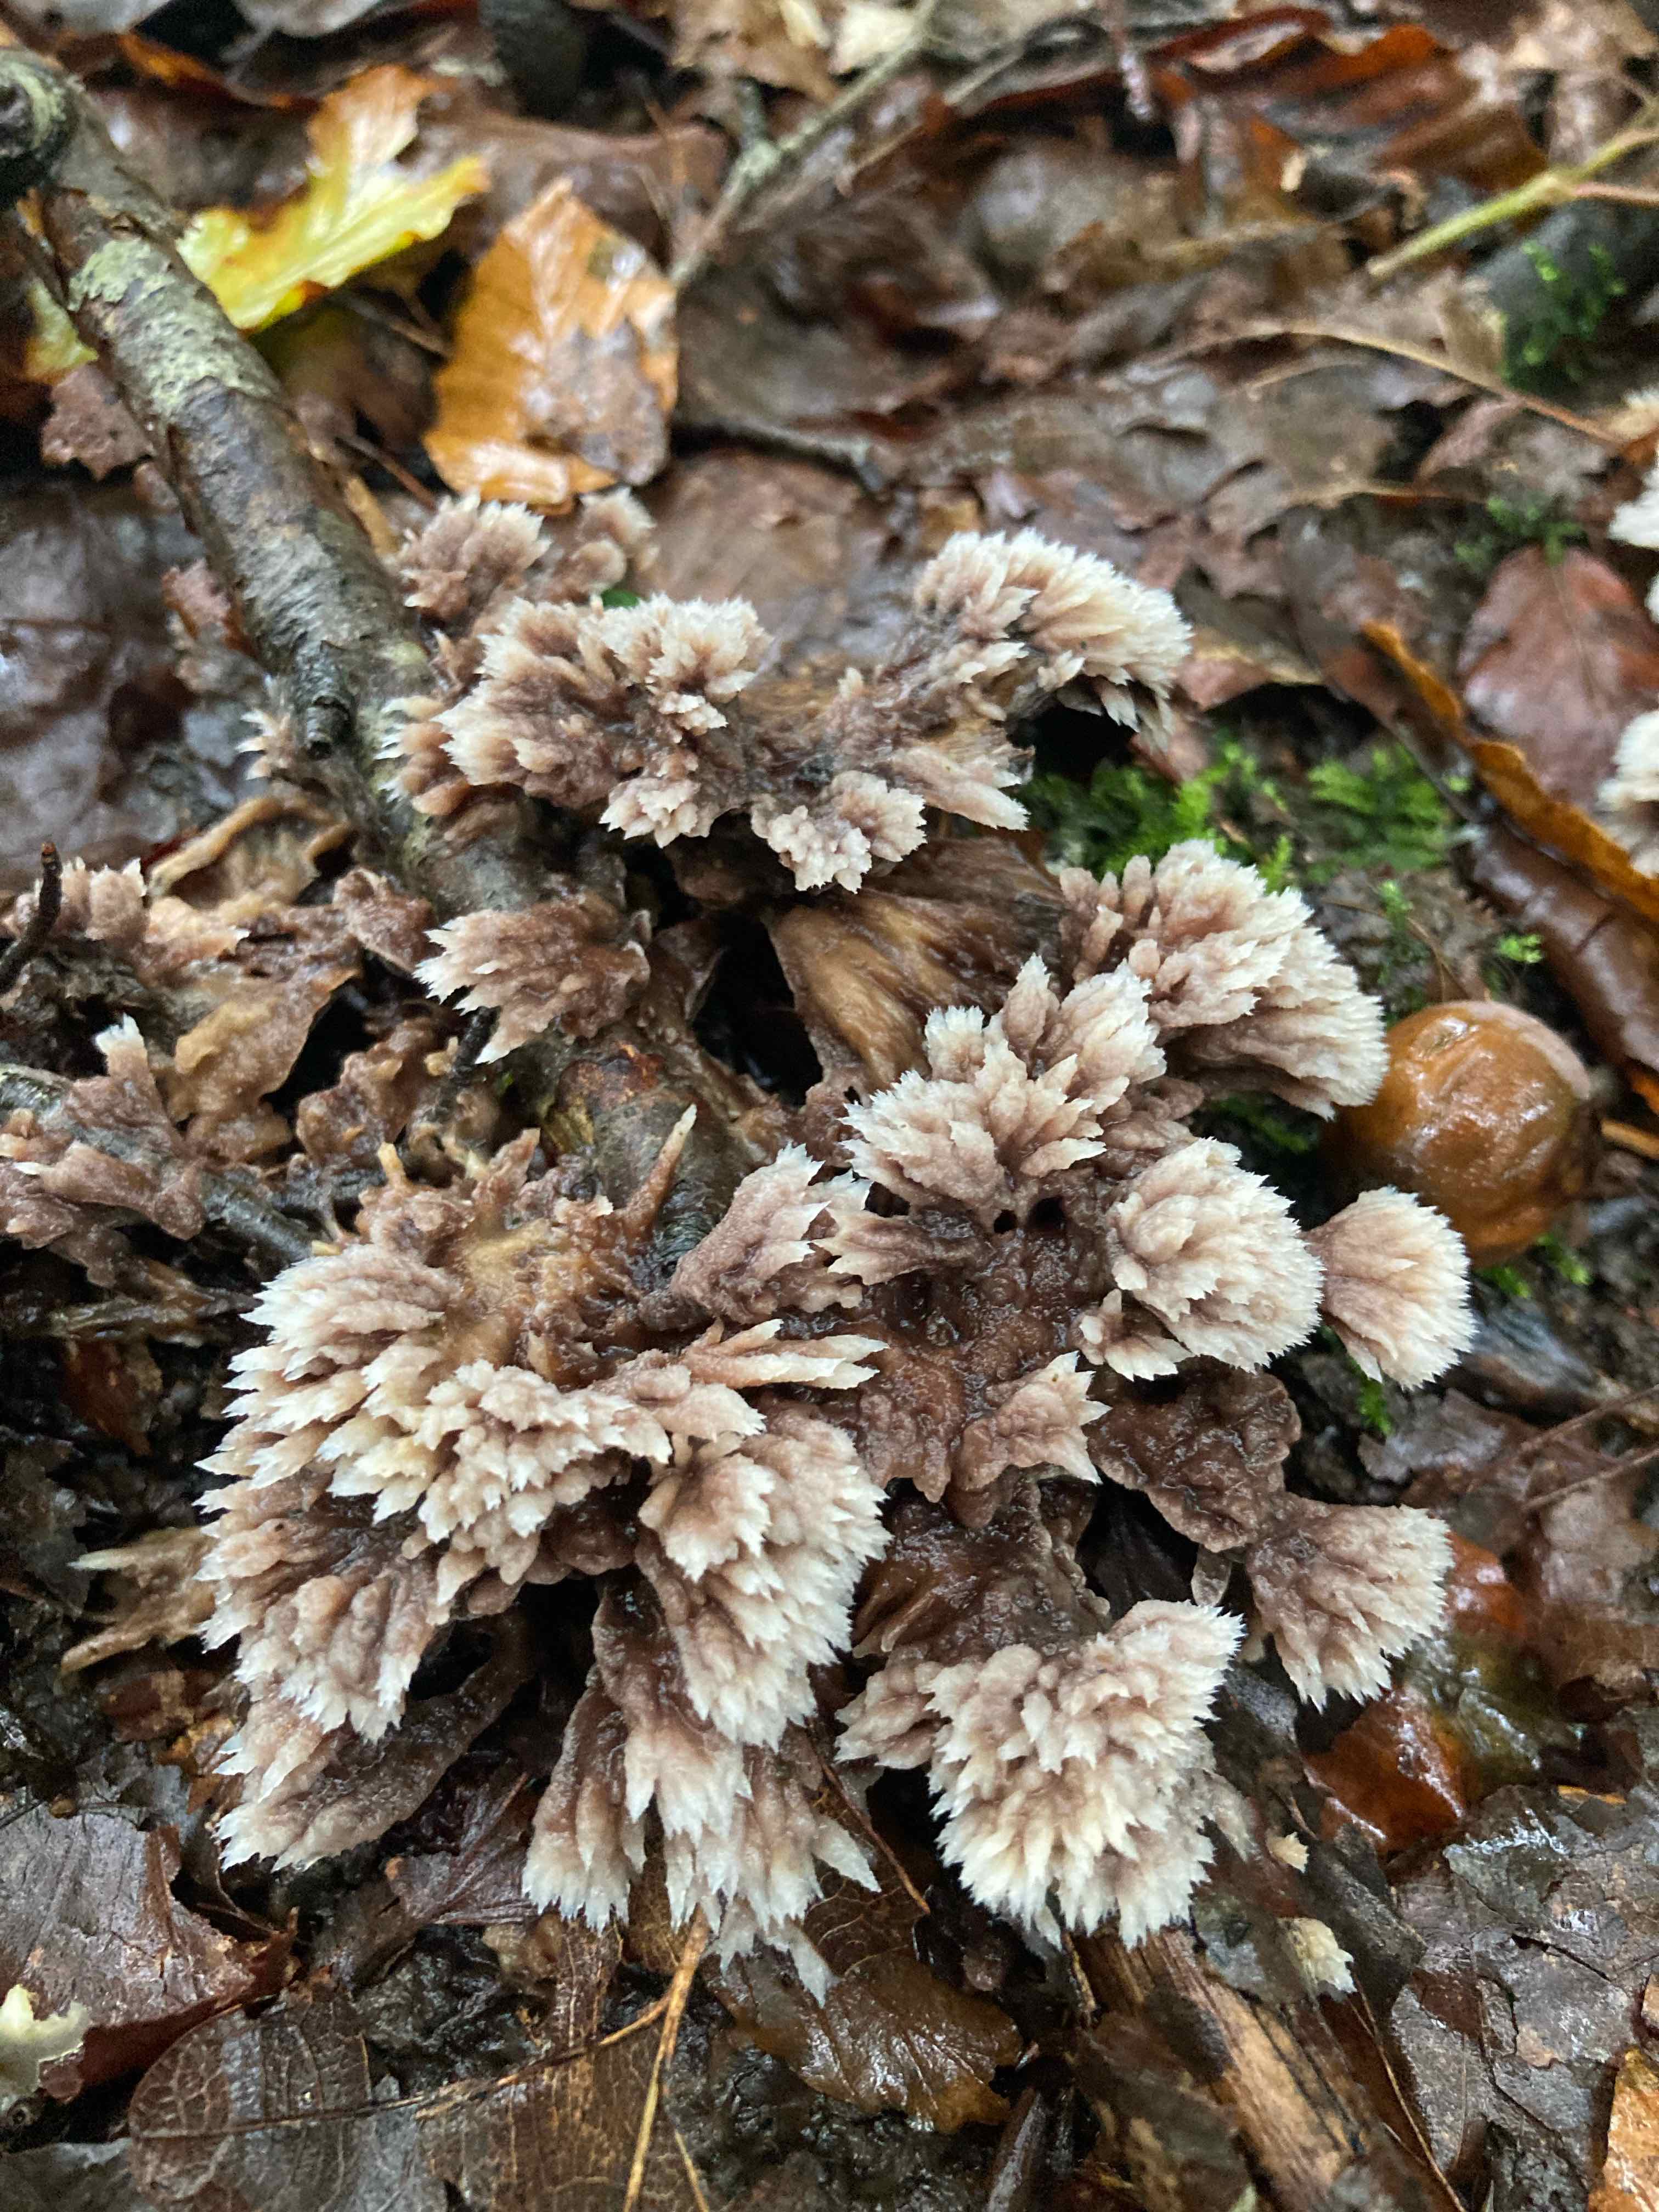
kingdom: Fungi
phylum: Basidiomycota
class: Agaricomycetes
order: Thelephorales
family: Thelephoraceae
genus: Thelephora
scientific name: Thelephora penicillata
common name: fladtrådt frynsesvamp
